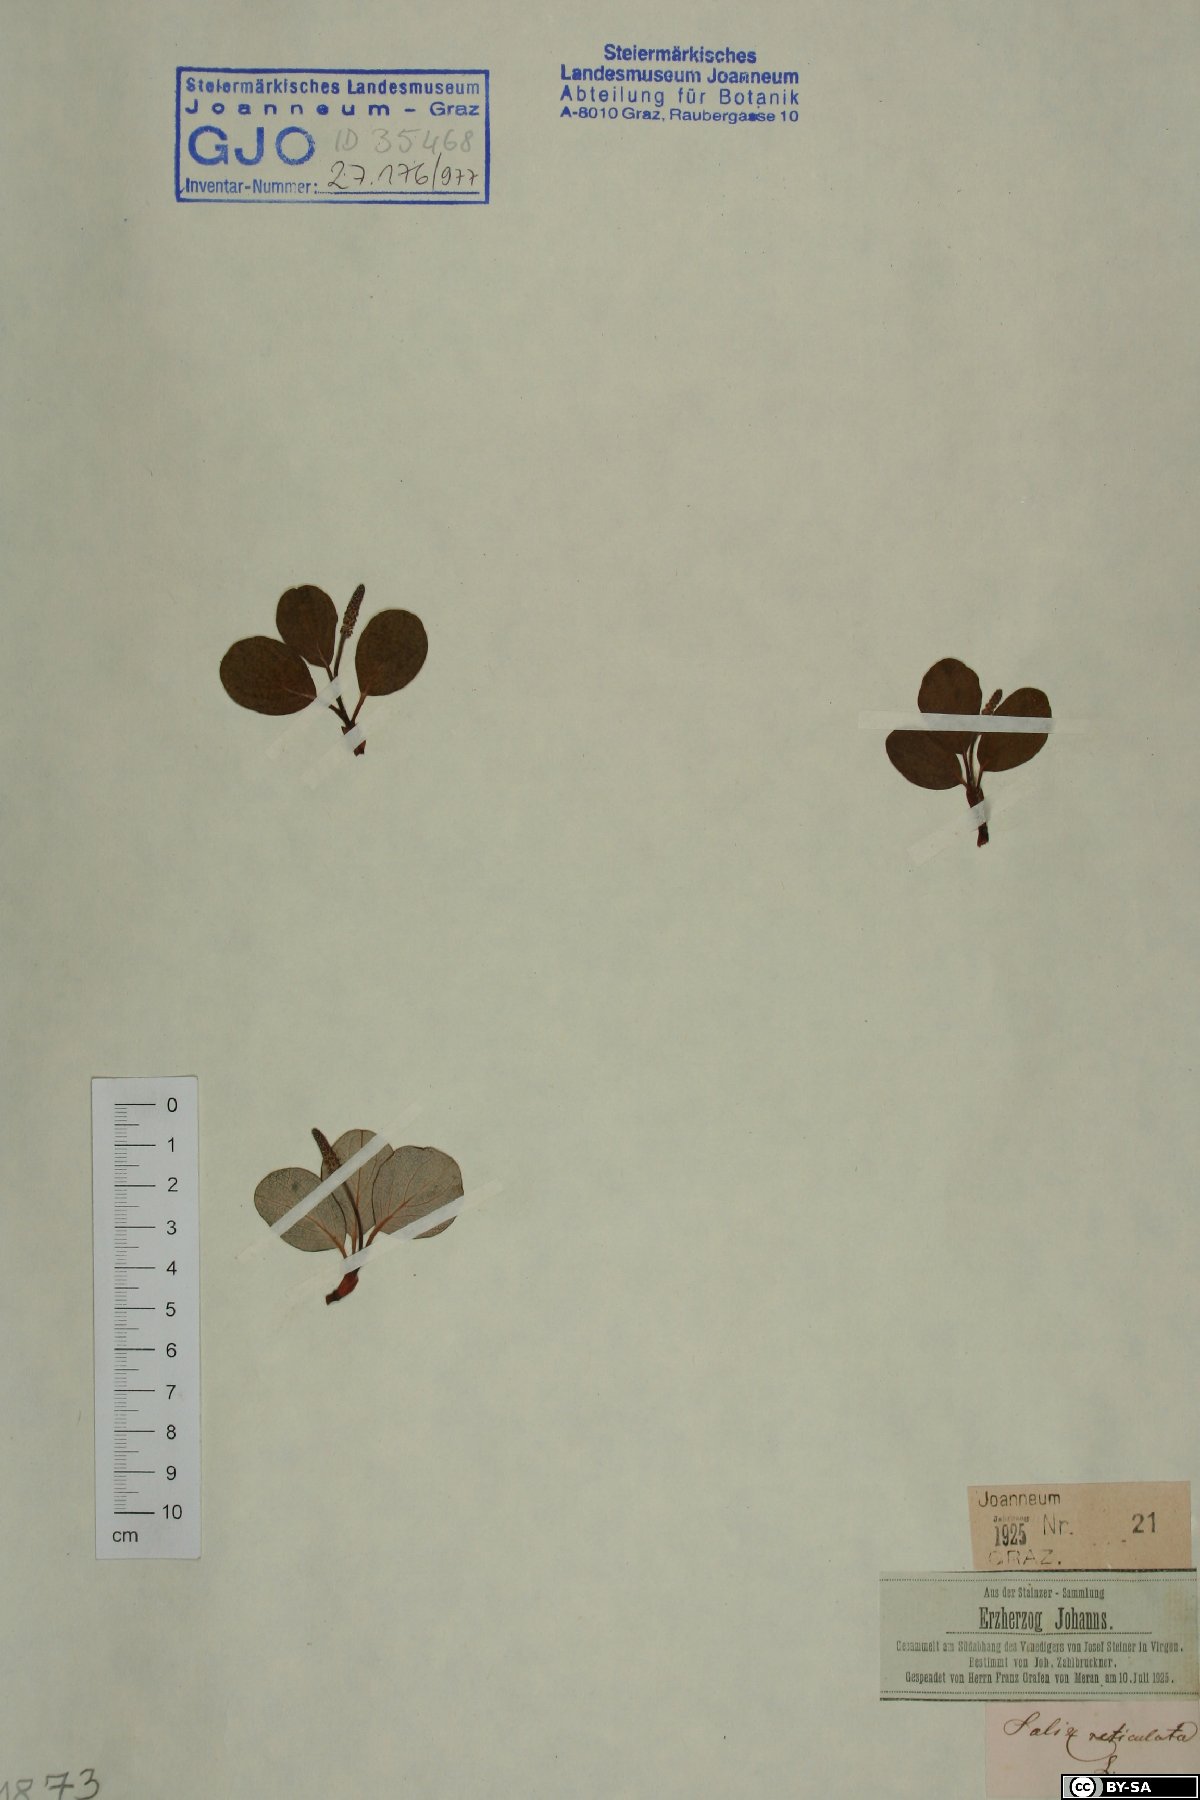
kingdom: Plantae
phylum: Tracheophyta
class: Magnoliopsida
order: Malpighiales
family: Salicaceae
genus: Salix
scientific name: Salix reticulata
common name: Net-leaved willow
